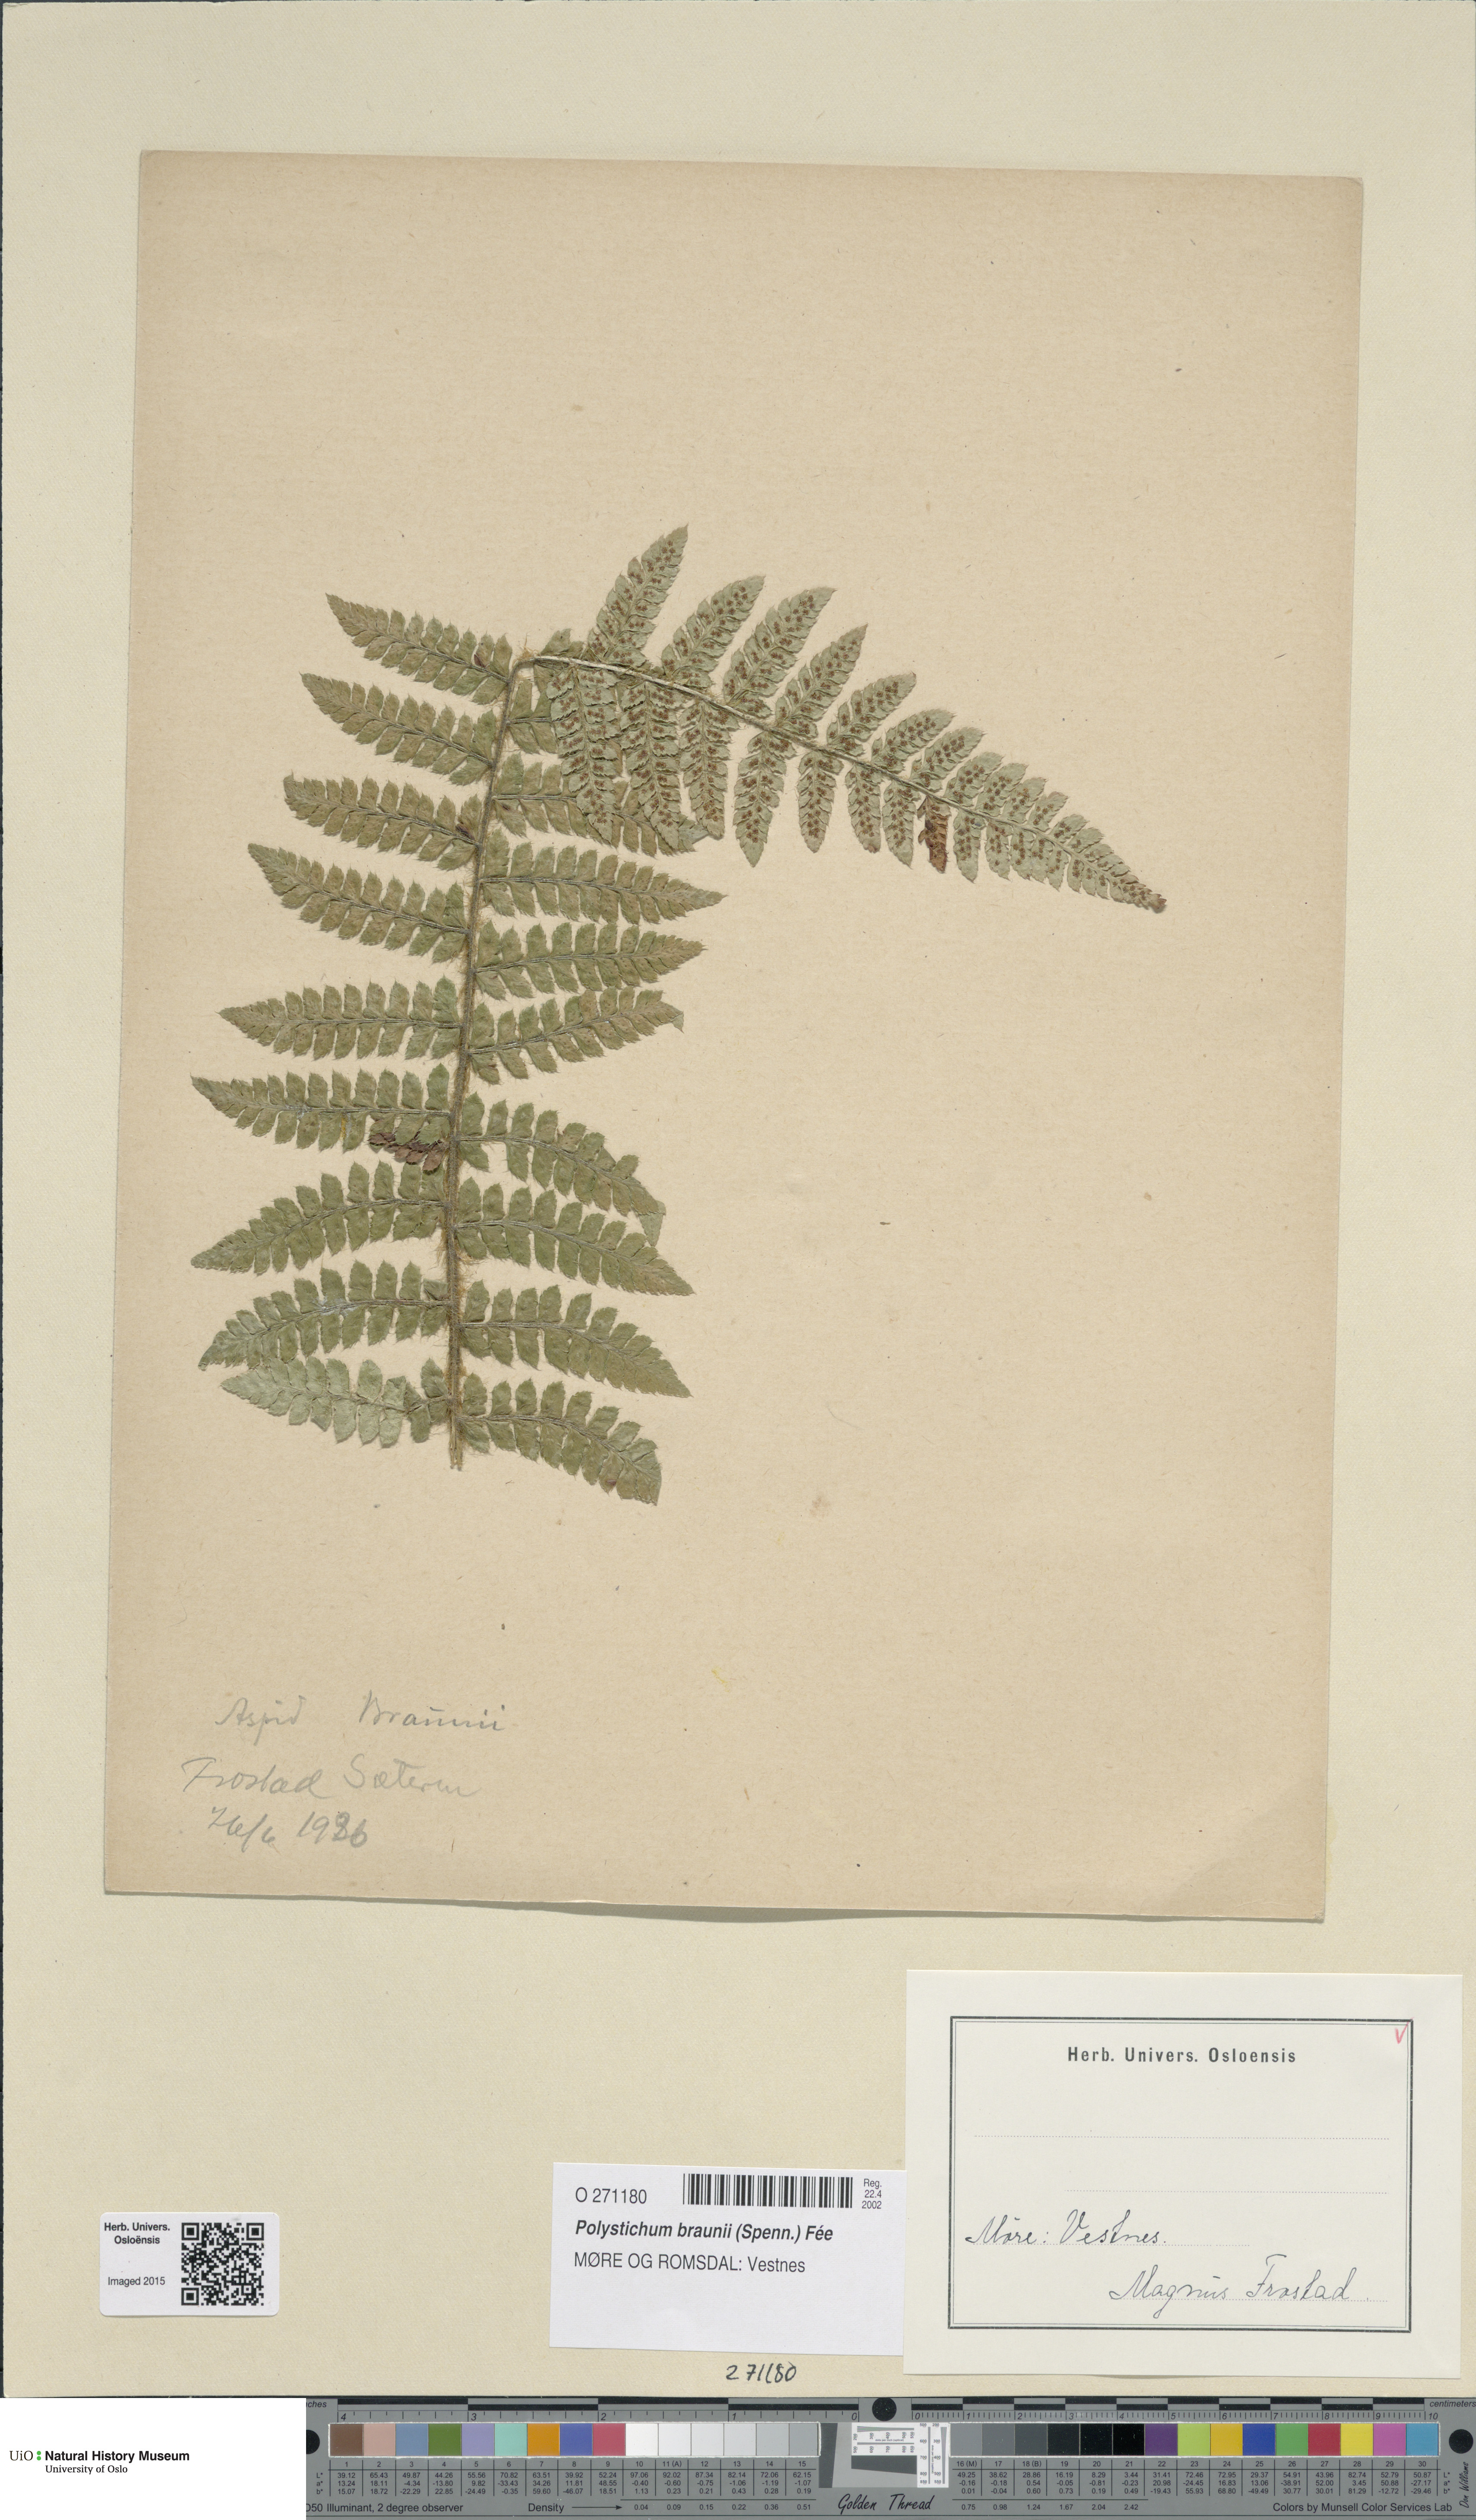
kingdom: Plantae
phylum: Tracheophyta
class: Polypodiopsida
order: Polypodiales
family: Dryopteridaceae
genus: Polystichum
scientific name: Polystichum braunii
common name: Braun's holly fern
